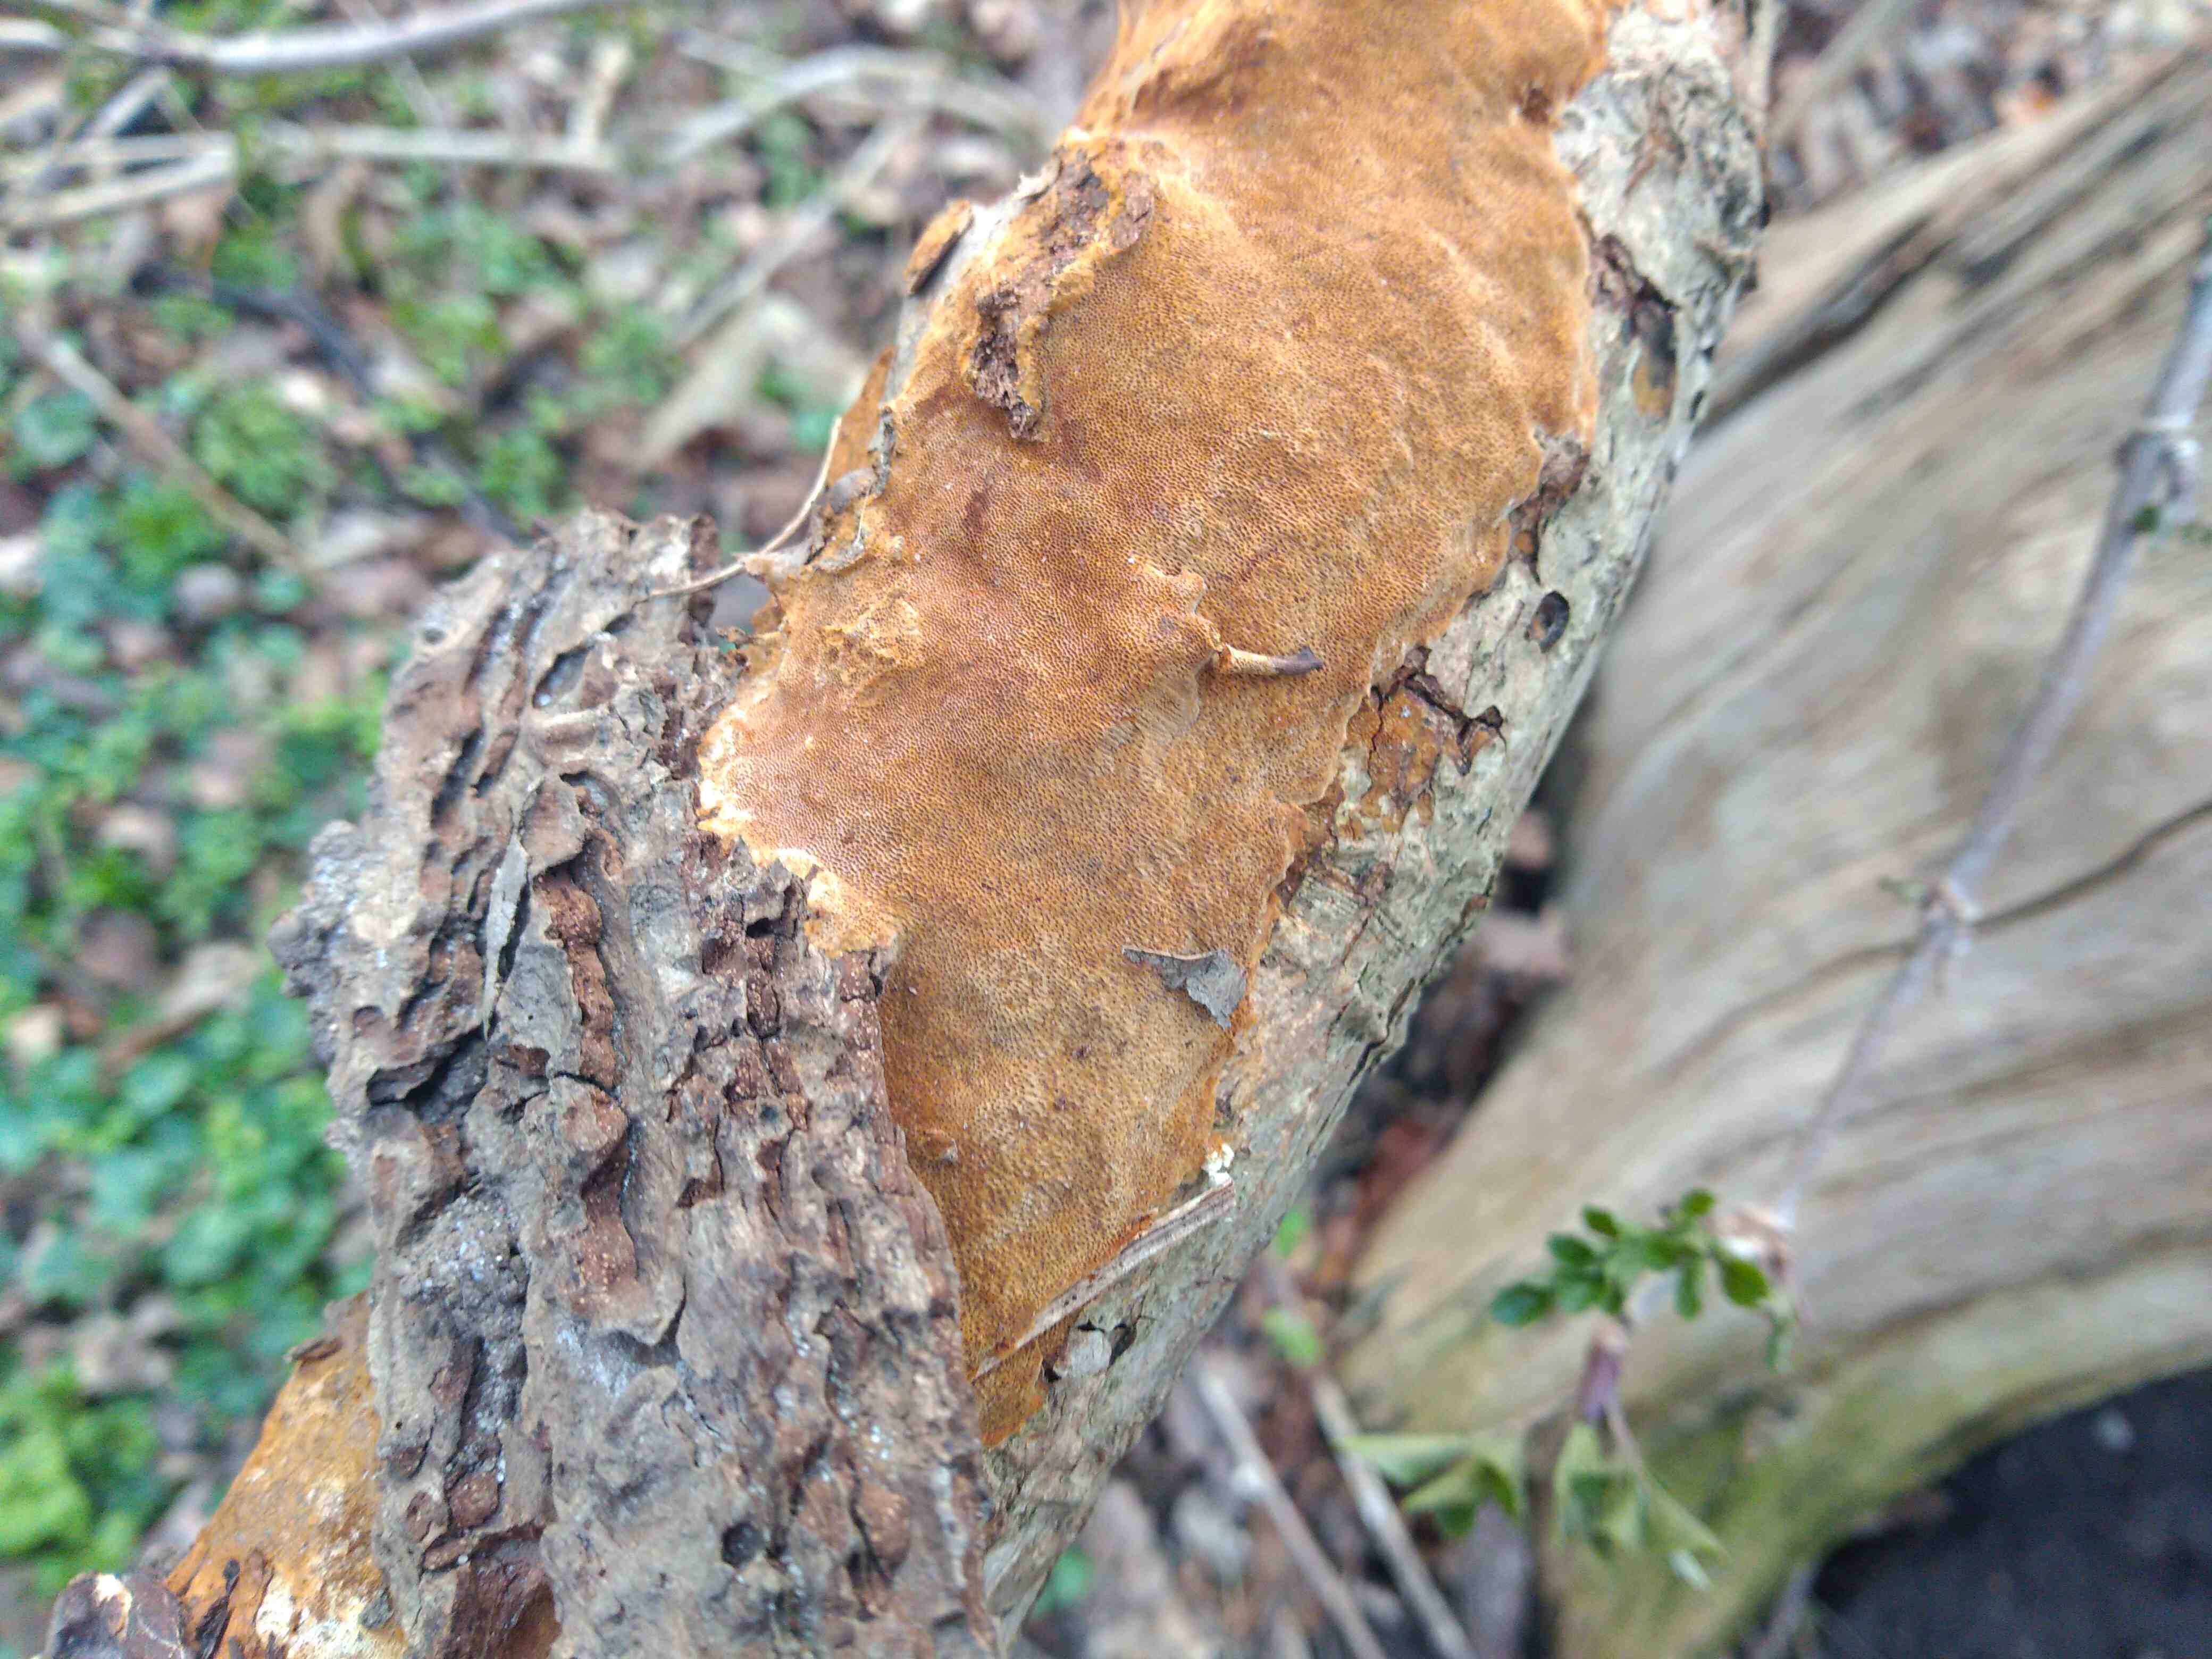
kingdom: Fungi
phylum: Basidiomycota
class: Agaricomycetes
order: Hymenochaetales
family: Hymenochaetaceae
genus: Fuscoporia
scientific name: Fuscoporia ferrea
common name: skorpe-ildporesvamp
